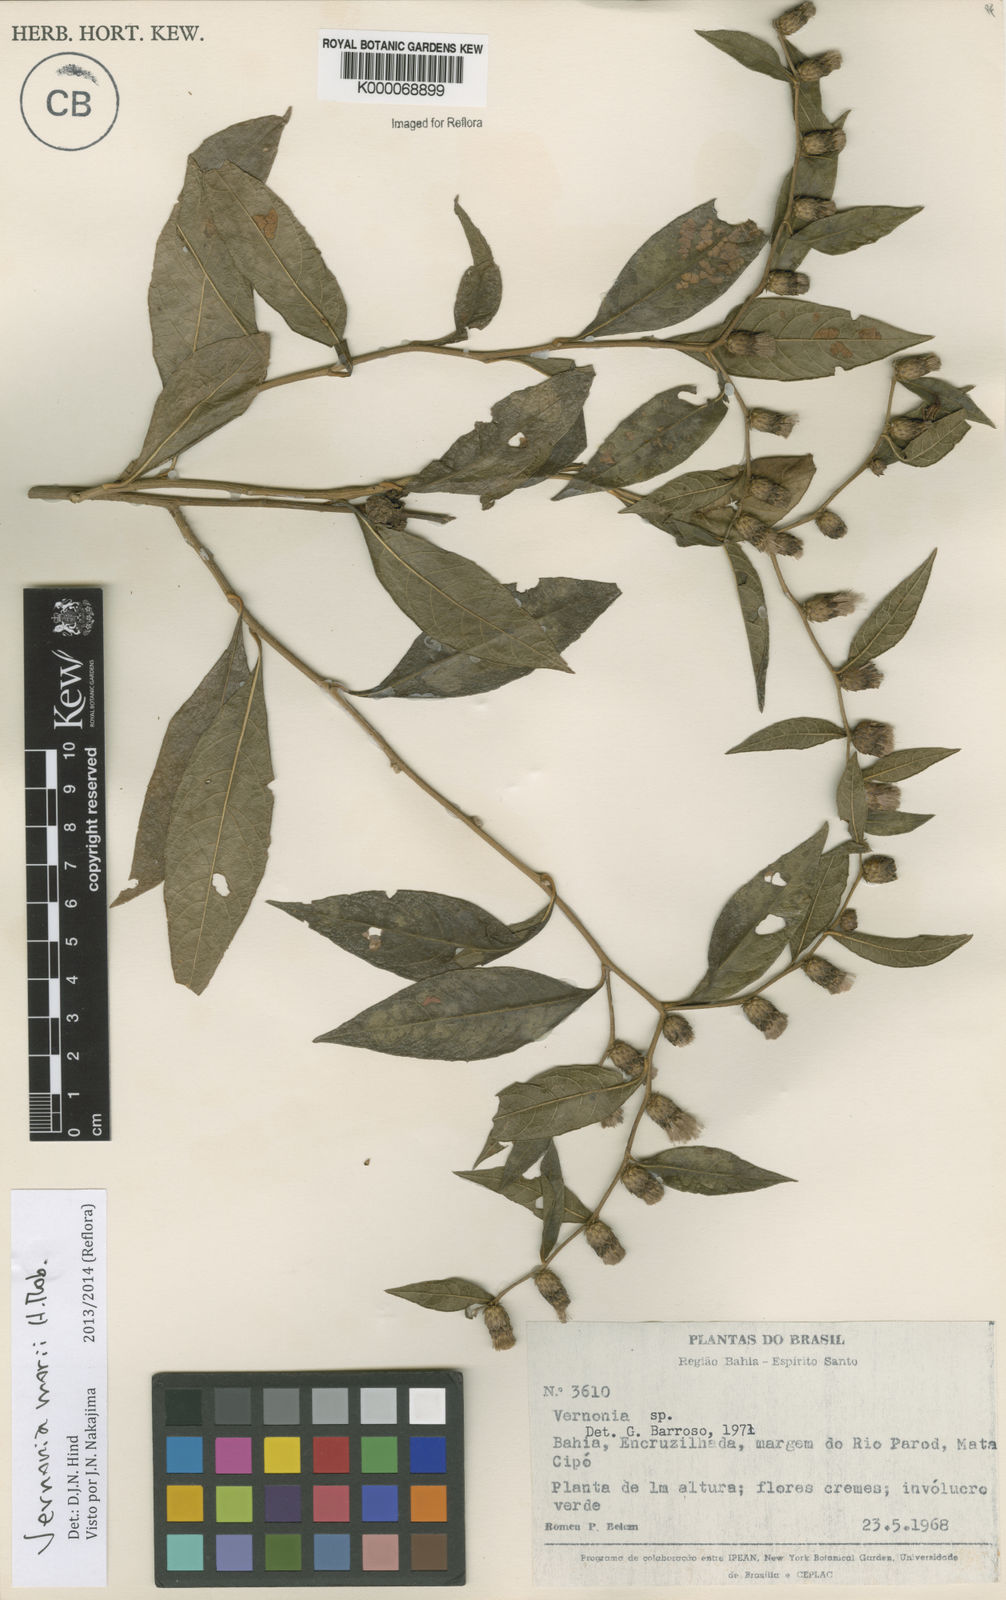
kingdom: Plantae
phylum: Tracheophyta
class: Magnoliopsida
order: Asterales
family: Asteraceae
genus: Lessingianthus
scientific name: Lessingianthus morii
